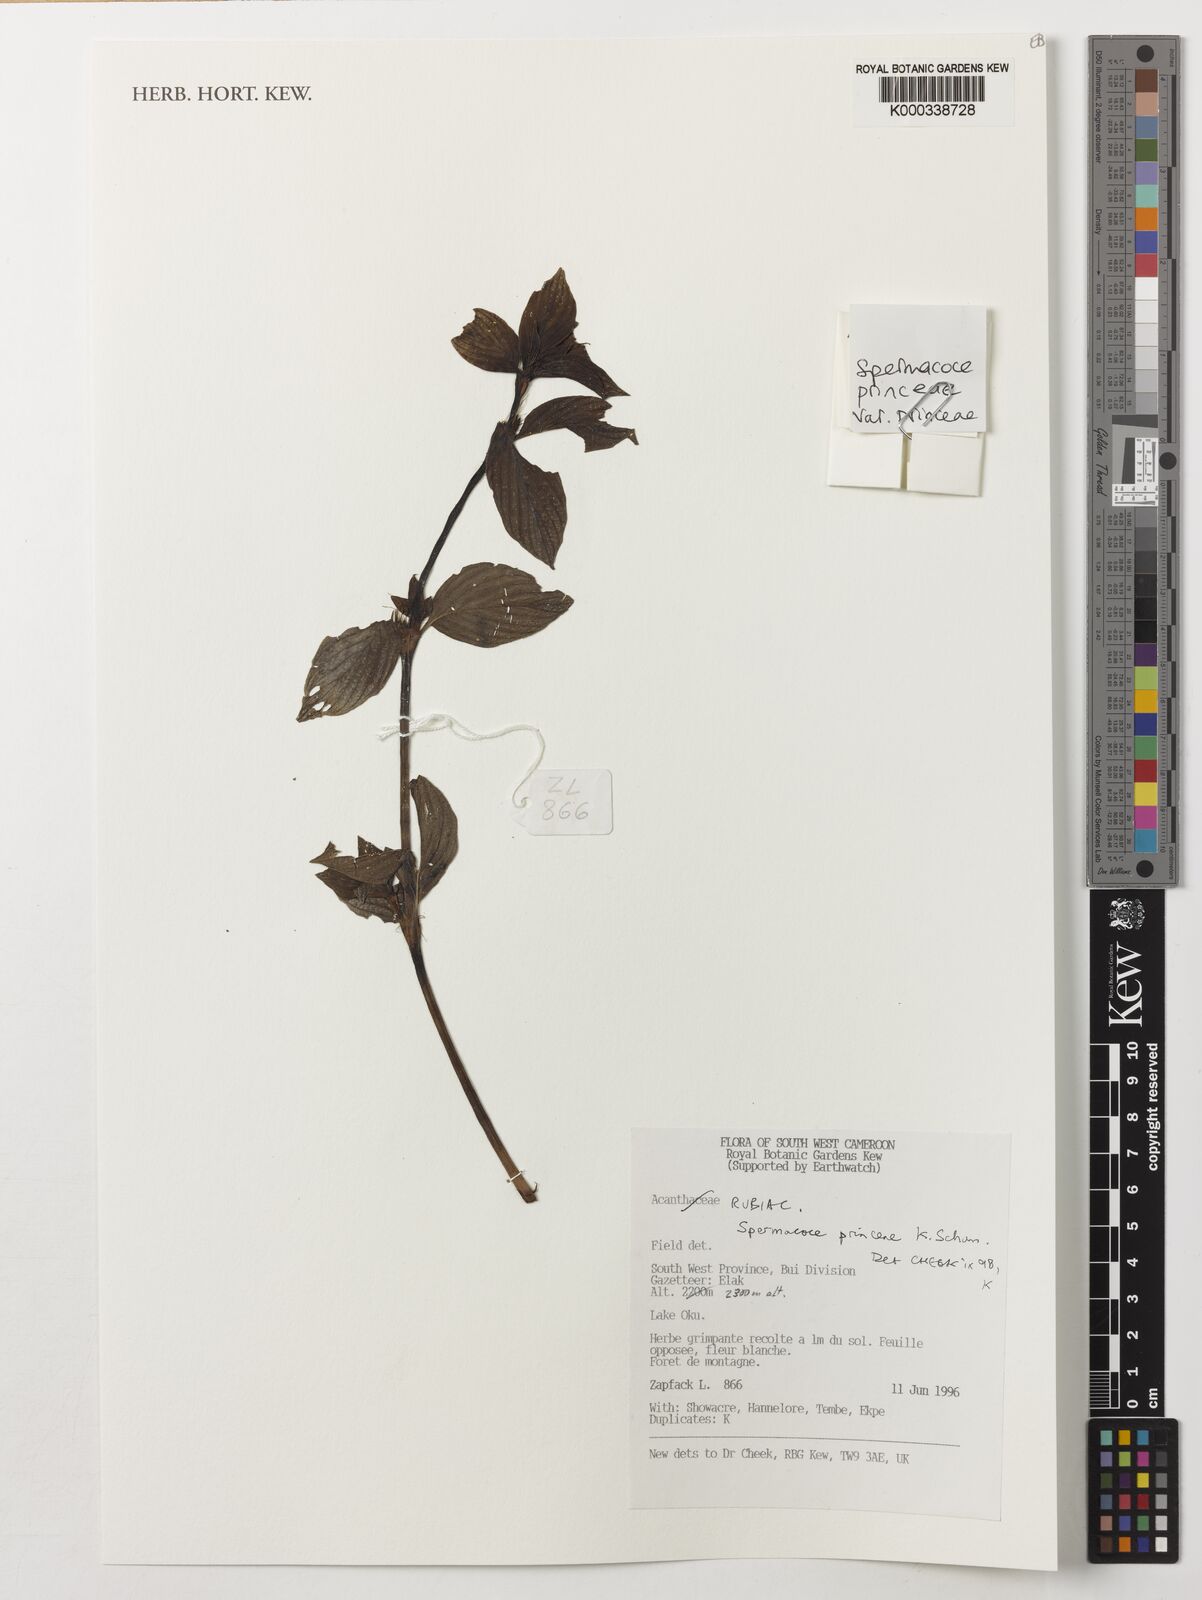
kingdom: Plantae
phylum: Tracheophyta
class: Magnoliopsida
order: Gentianales
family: Rubiaceae
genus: Spermacoce
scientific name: Spermacoce princeae
